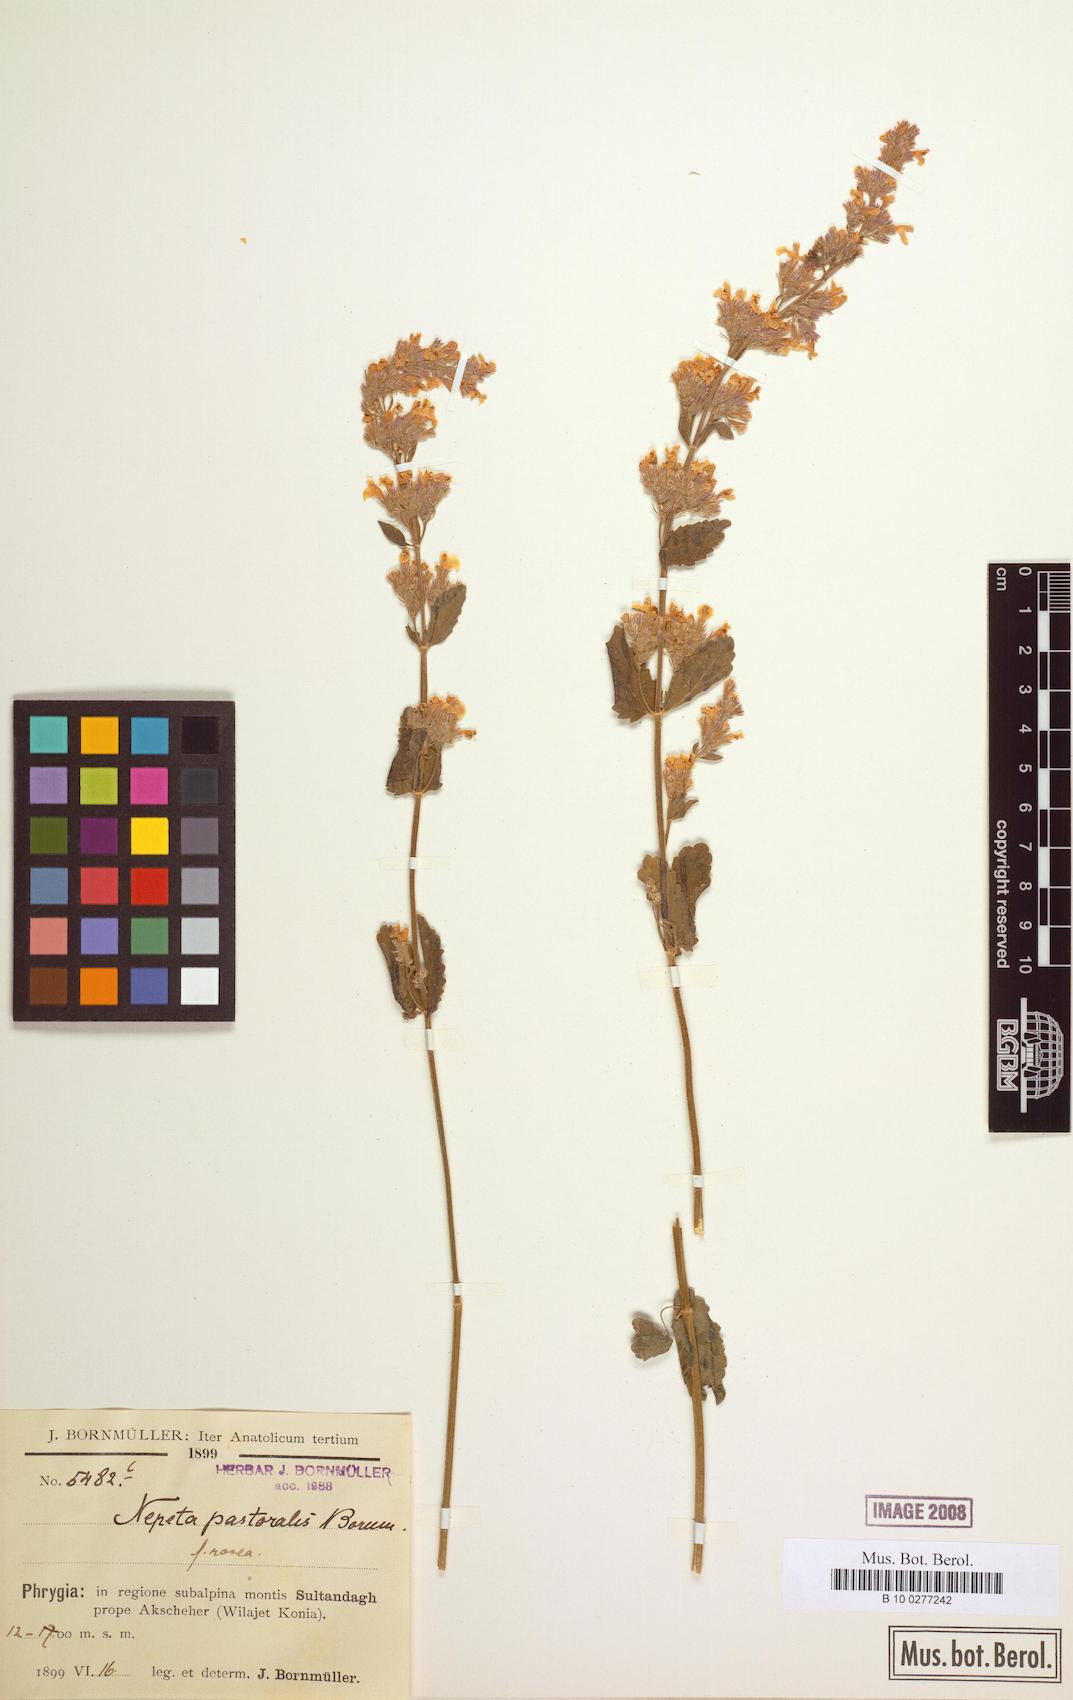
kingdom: Plantae
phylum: Tracheophyta
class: Magnoliopsida
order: Lamiales
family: Lamiaceae
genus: Nepeta
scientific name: Nepeta
